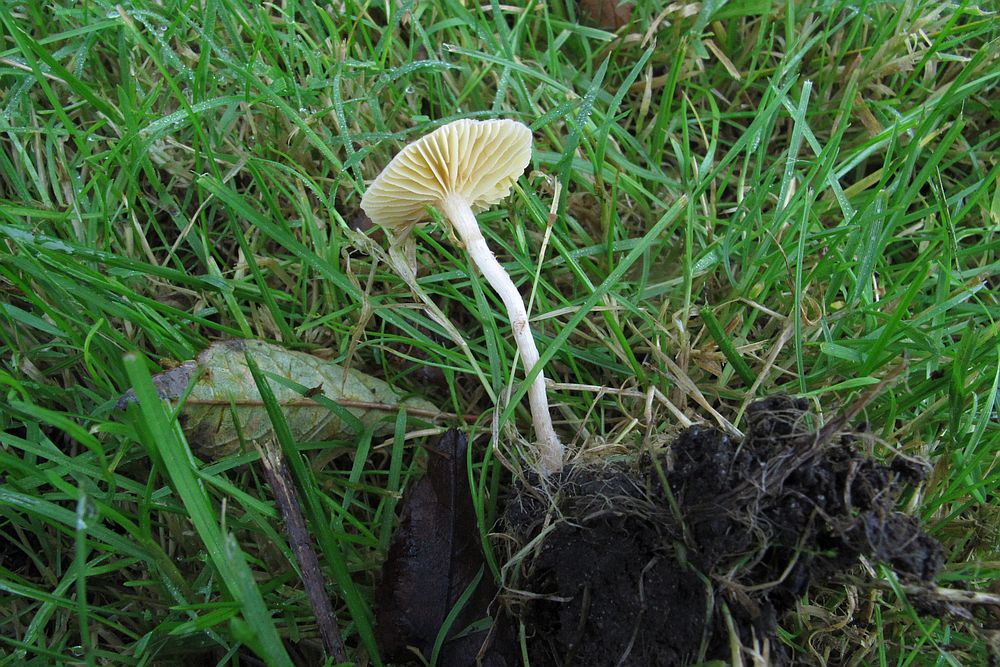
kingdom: Fungi
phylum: Basidiomycota
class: Agaricomycetes
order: Agaricales
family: Tubariaceae
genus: Tubaria
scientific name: Tubaria dispersa
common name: tjørne-fnughat
